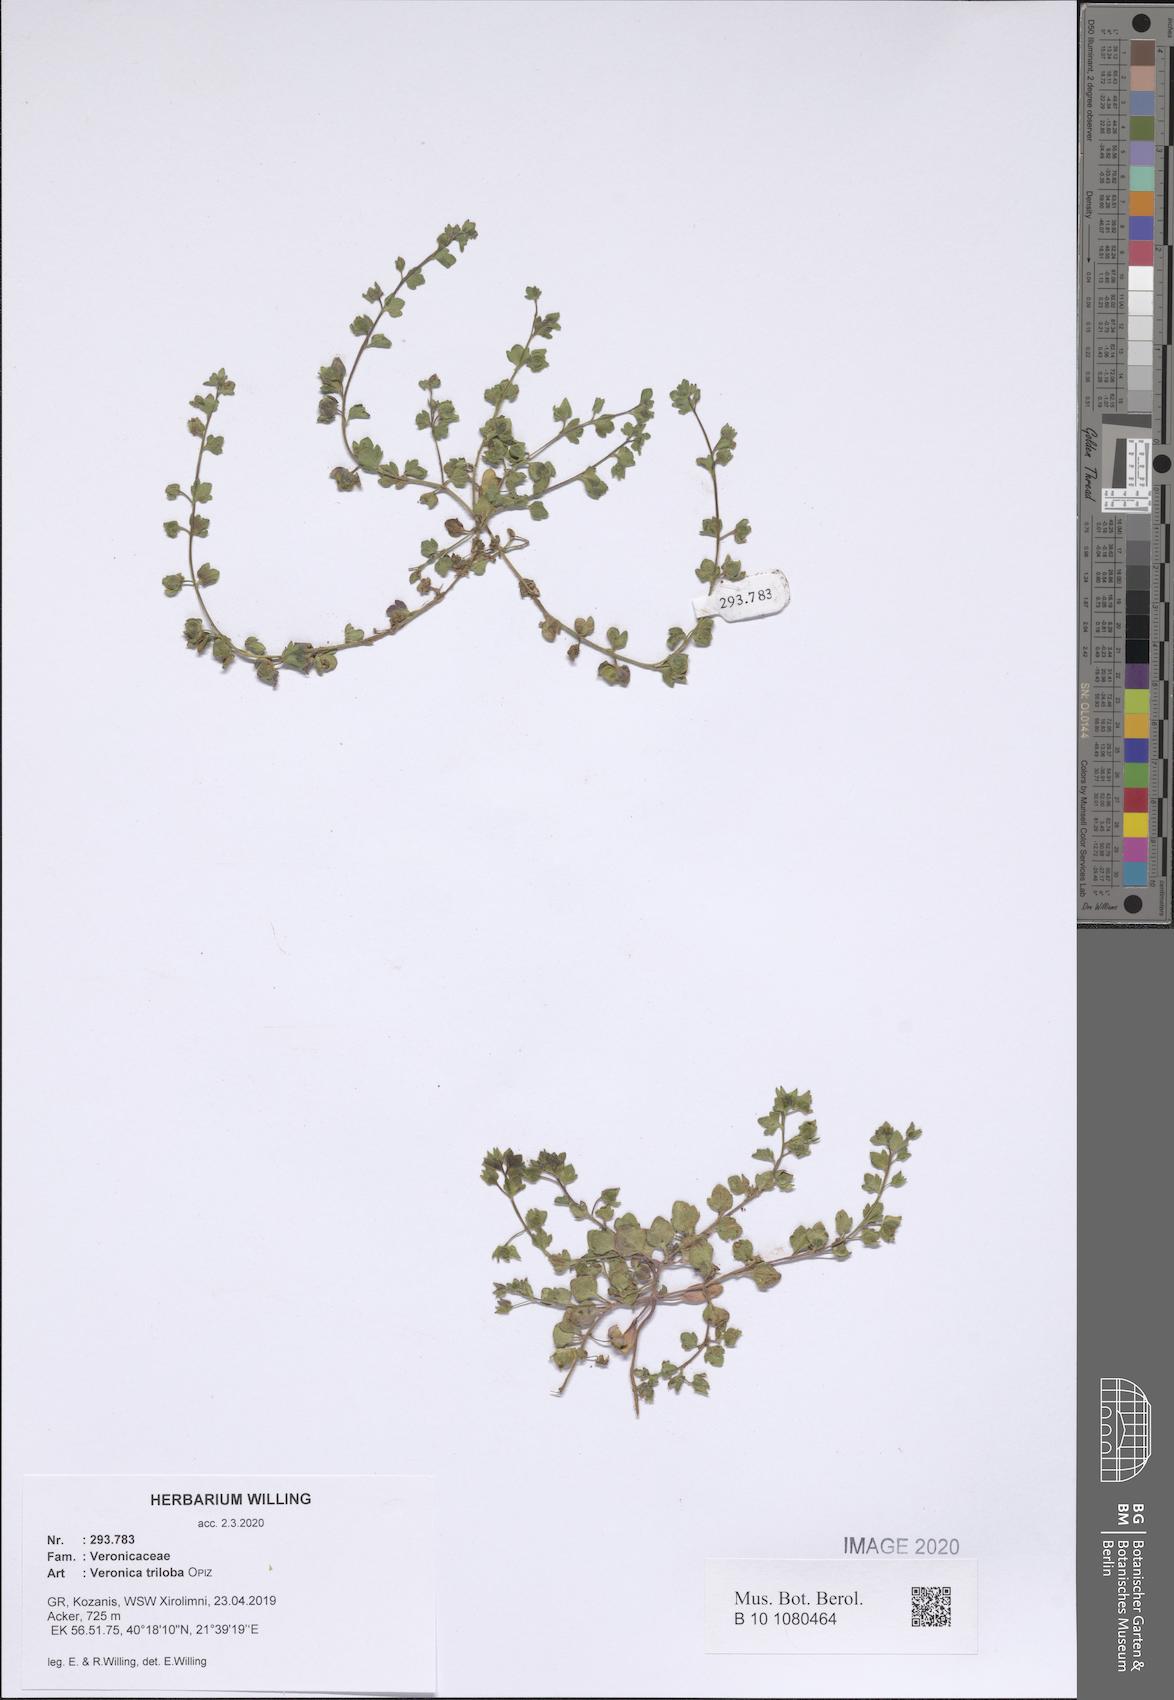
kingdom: Plantae
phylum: Tracheophyta
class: Magnoliopsida
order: Lamiales
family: Plantaginaceae
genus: Veronica
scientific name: Veronica triloba
